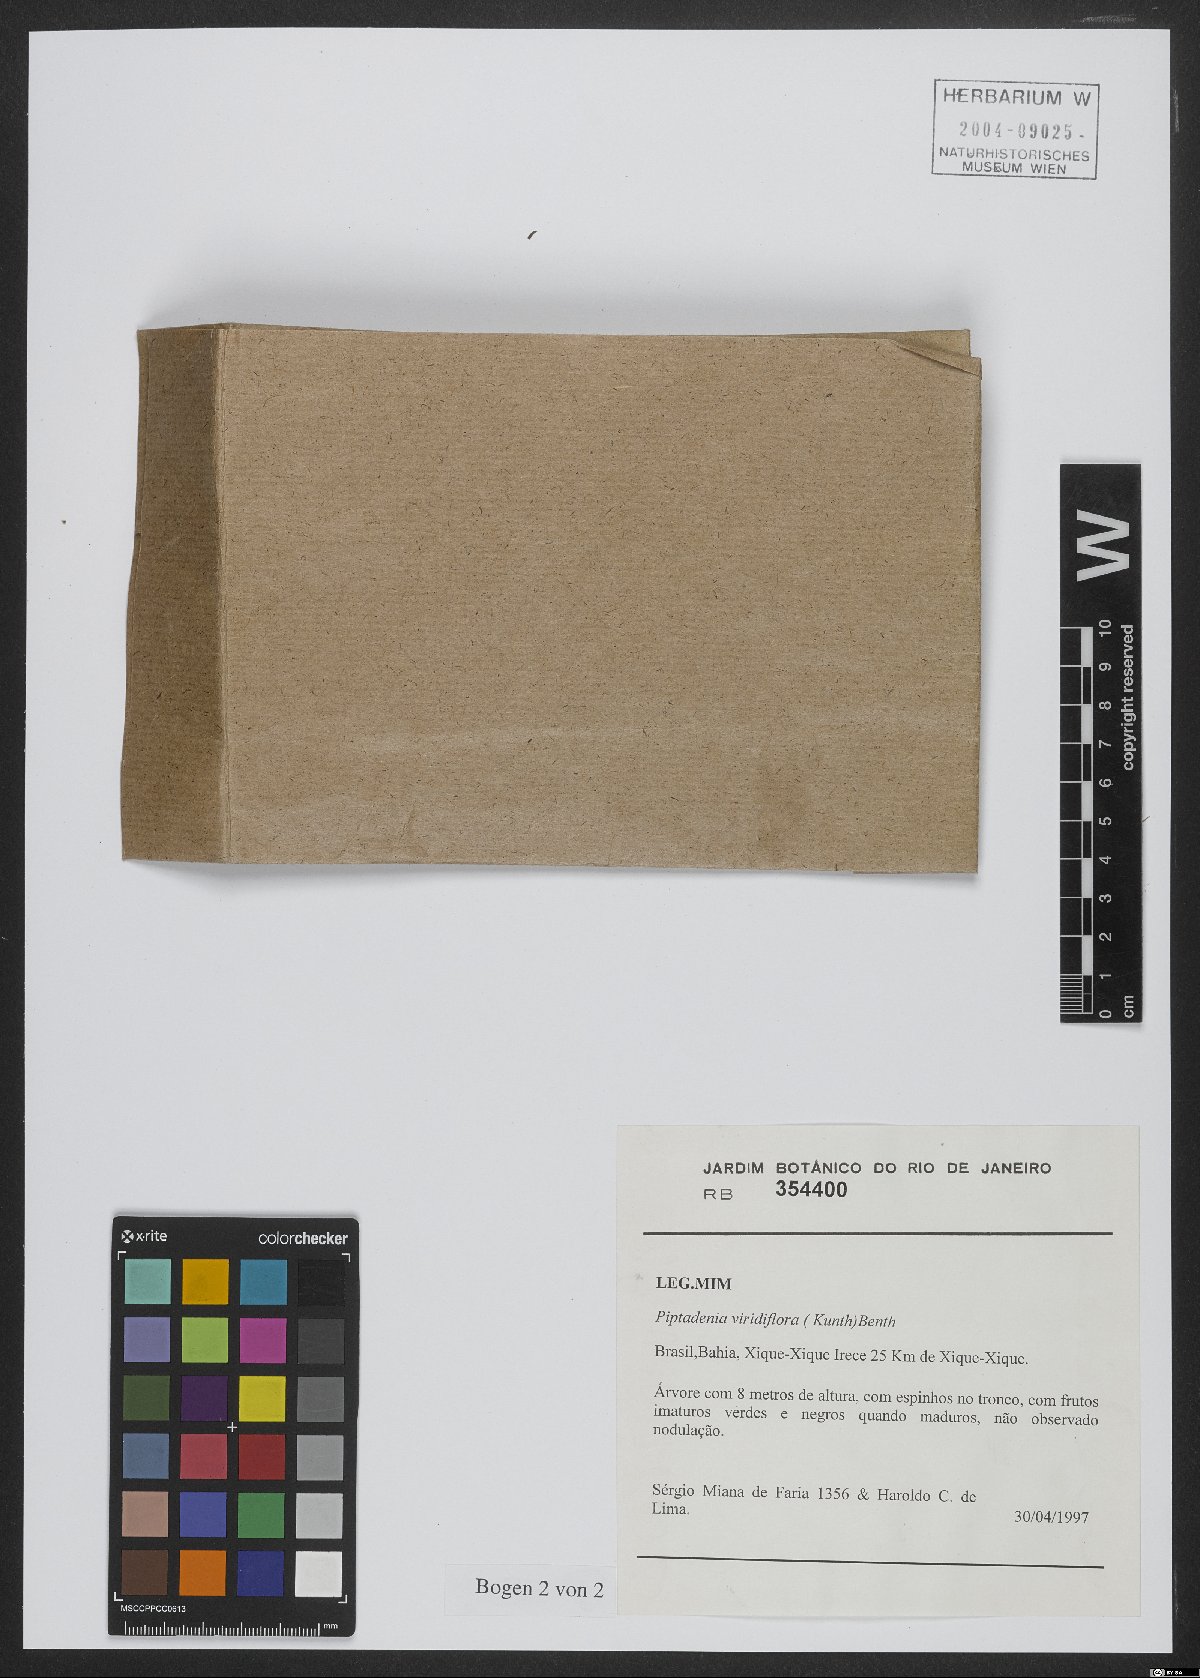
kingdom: Plantae
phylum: Tracheophyta
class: Magnoliopsida
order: Fabales
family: Fabaceae
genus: Lachesiodendron
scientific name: Lachesiodendron viridiflorum
